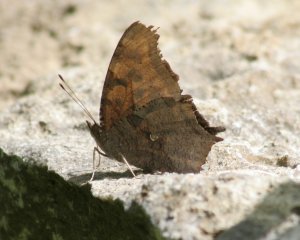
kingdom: Animalia
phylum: Arthropoda
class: Insecta
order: Lepidoptera
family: Nymphalidae
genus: Polygonia
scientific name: Polygonia comma
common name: Eastern Comma
